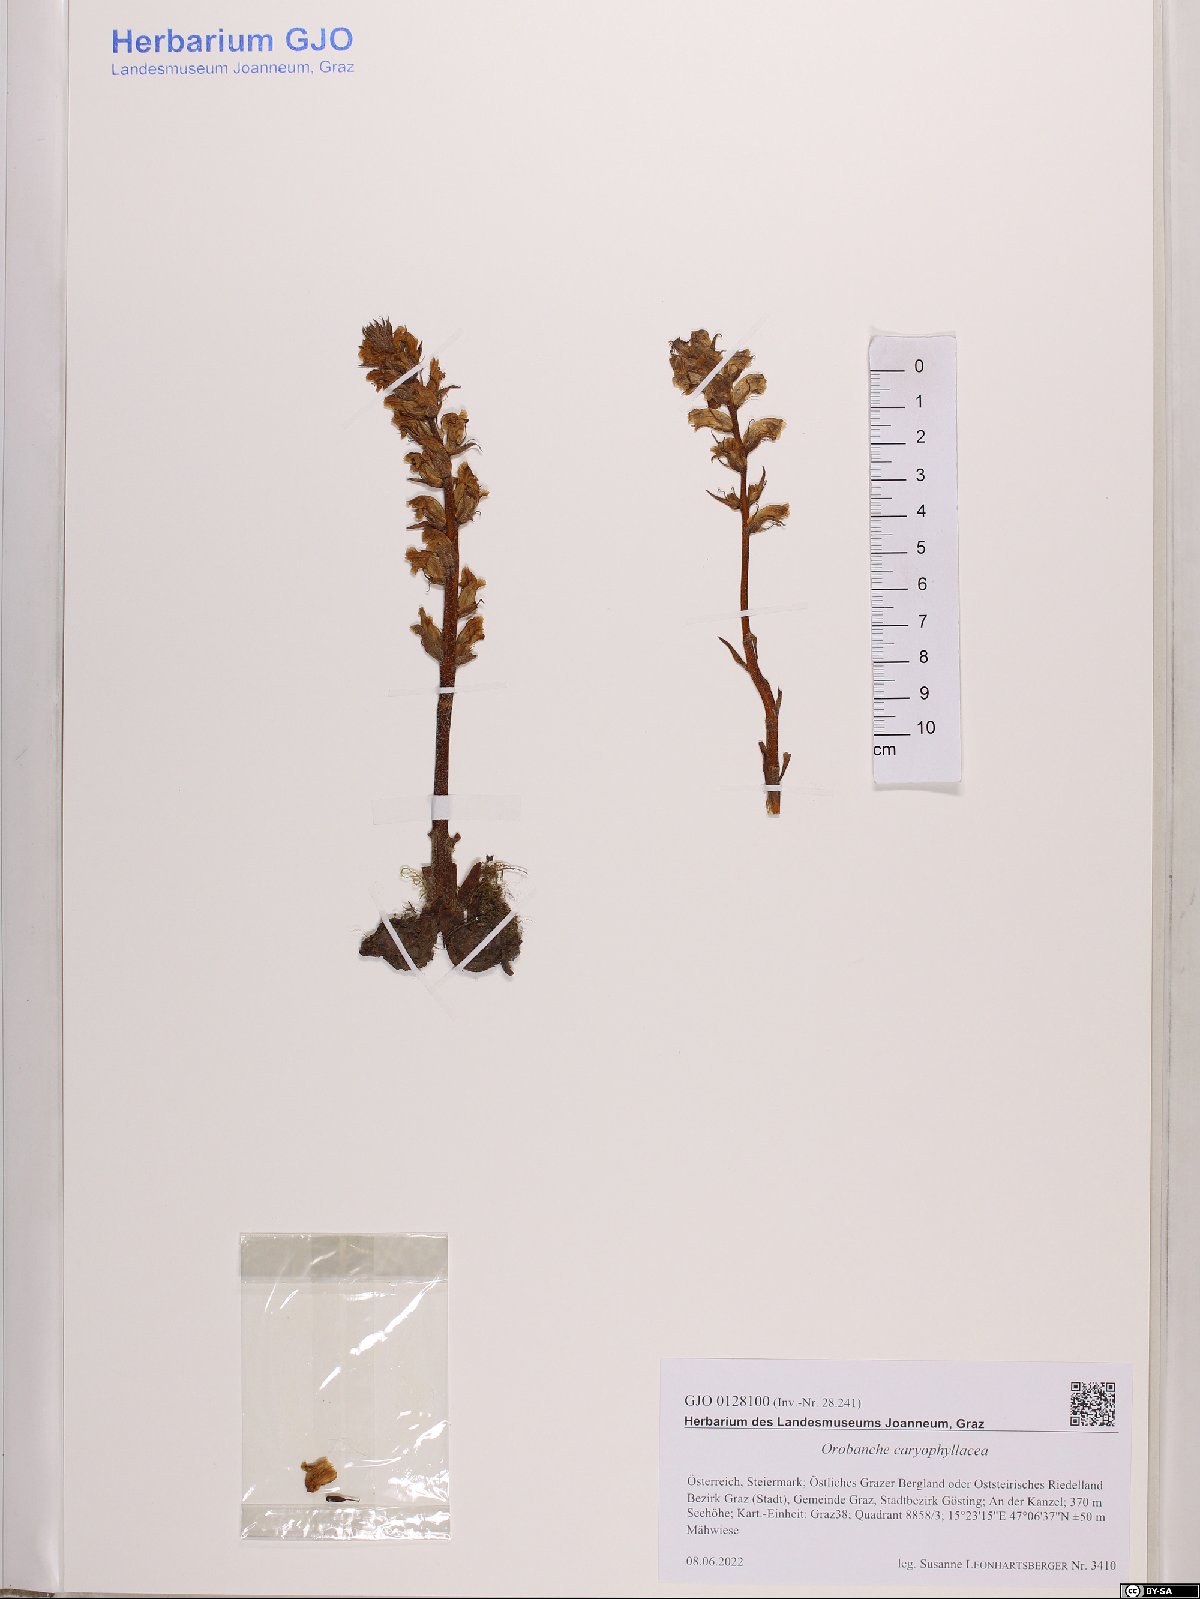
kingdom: Plantae
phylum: Tracheophyta
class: Magnoliopsida
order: Lamiales
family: Orobanchaceae
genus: Orobanche
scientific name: Orobanche caryophyllacea
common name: Bedstraw broomrape
